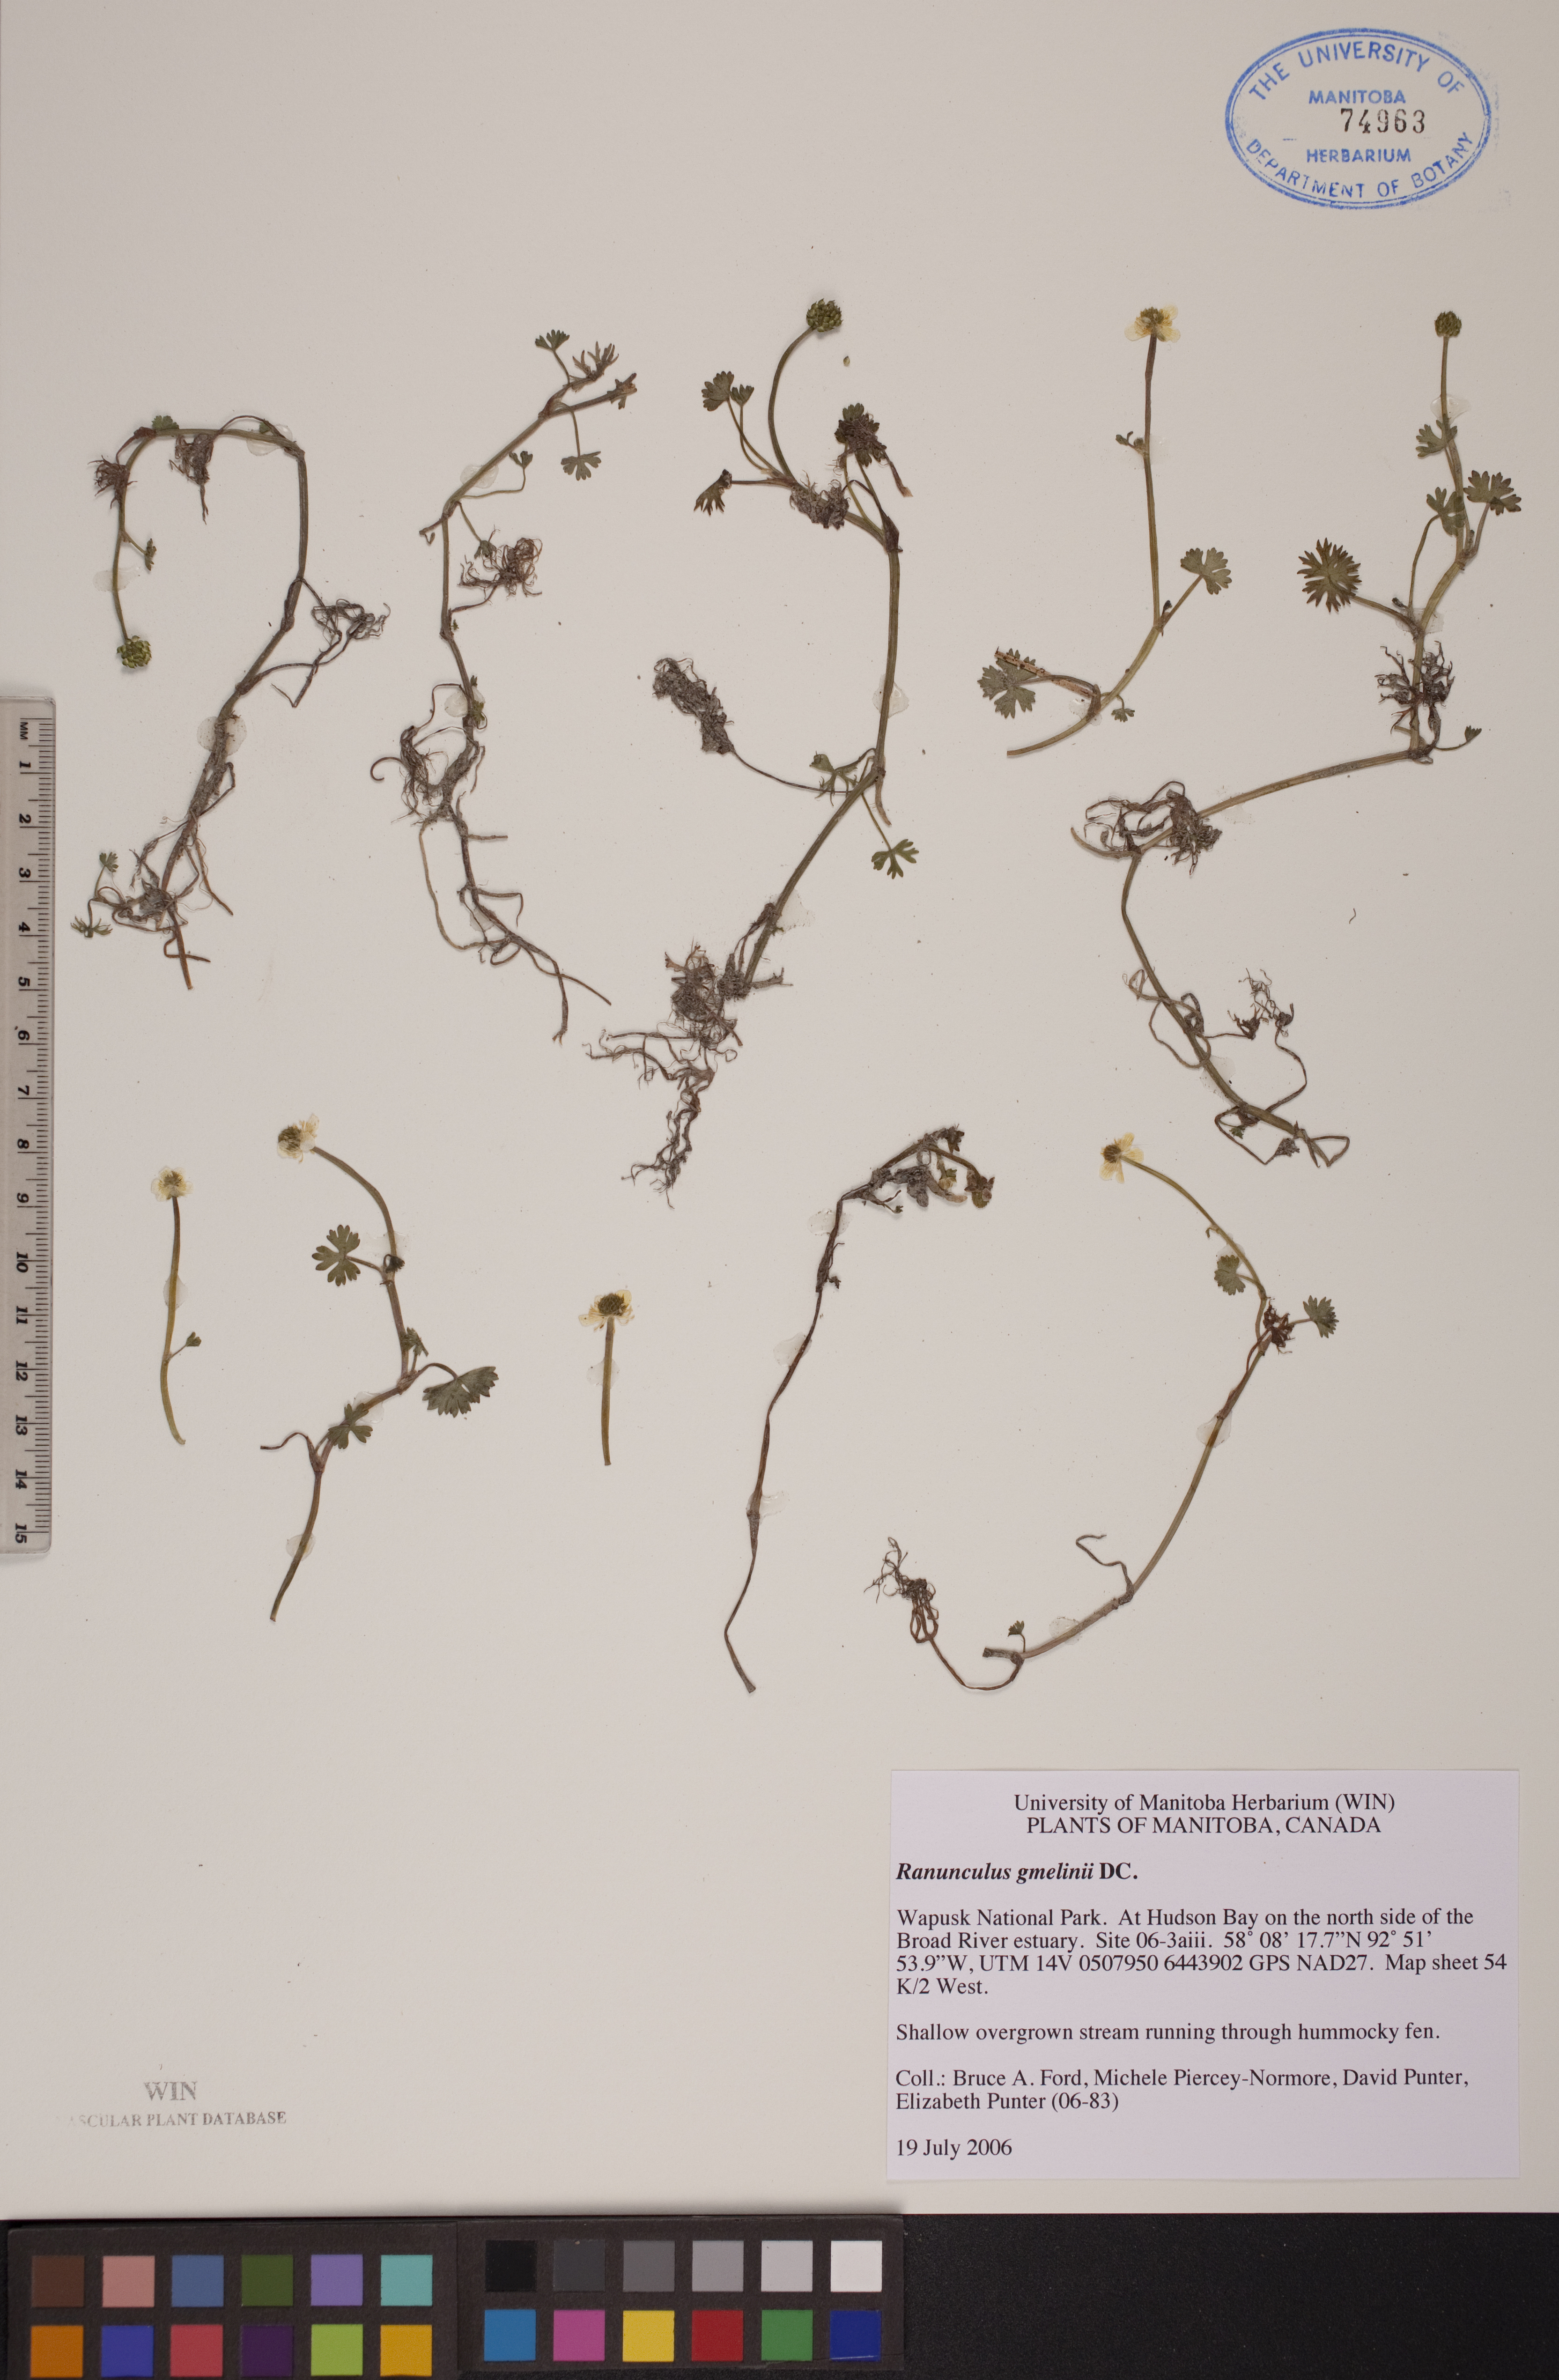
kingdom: Plantae
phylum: Tracheophyta
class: Magnoliopsida
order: Ranunculales
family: Ranunculaceae
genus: Ranunculus
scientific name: Ranunculus gmelinii
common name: Gmelin's buttercup
